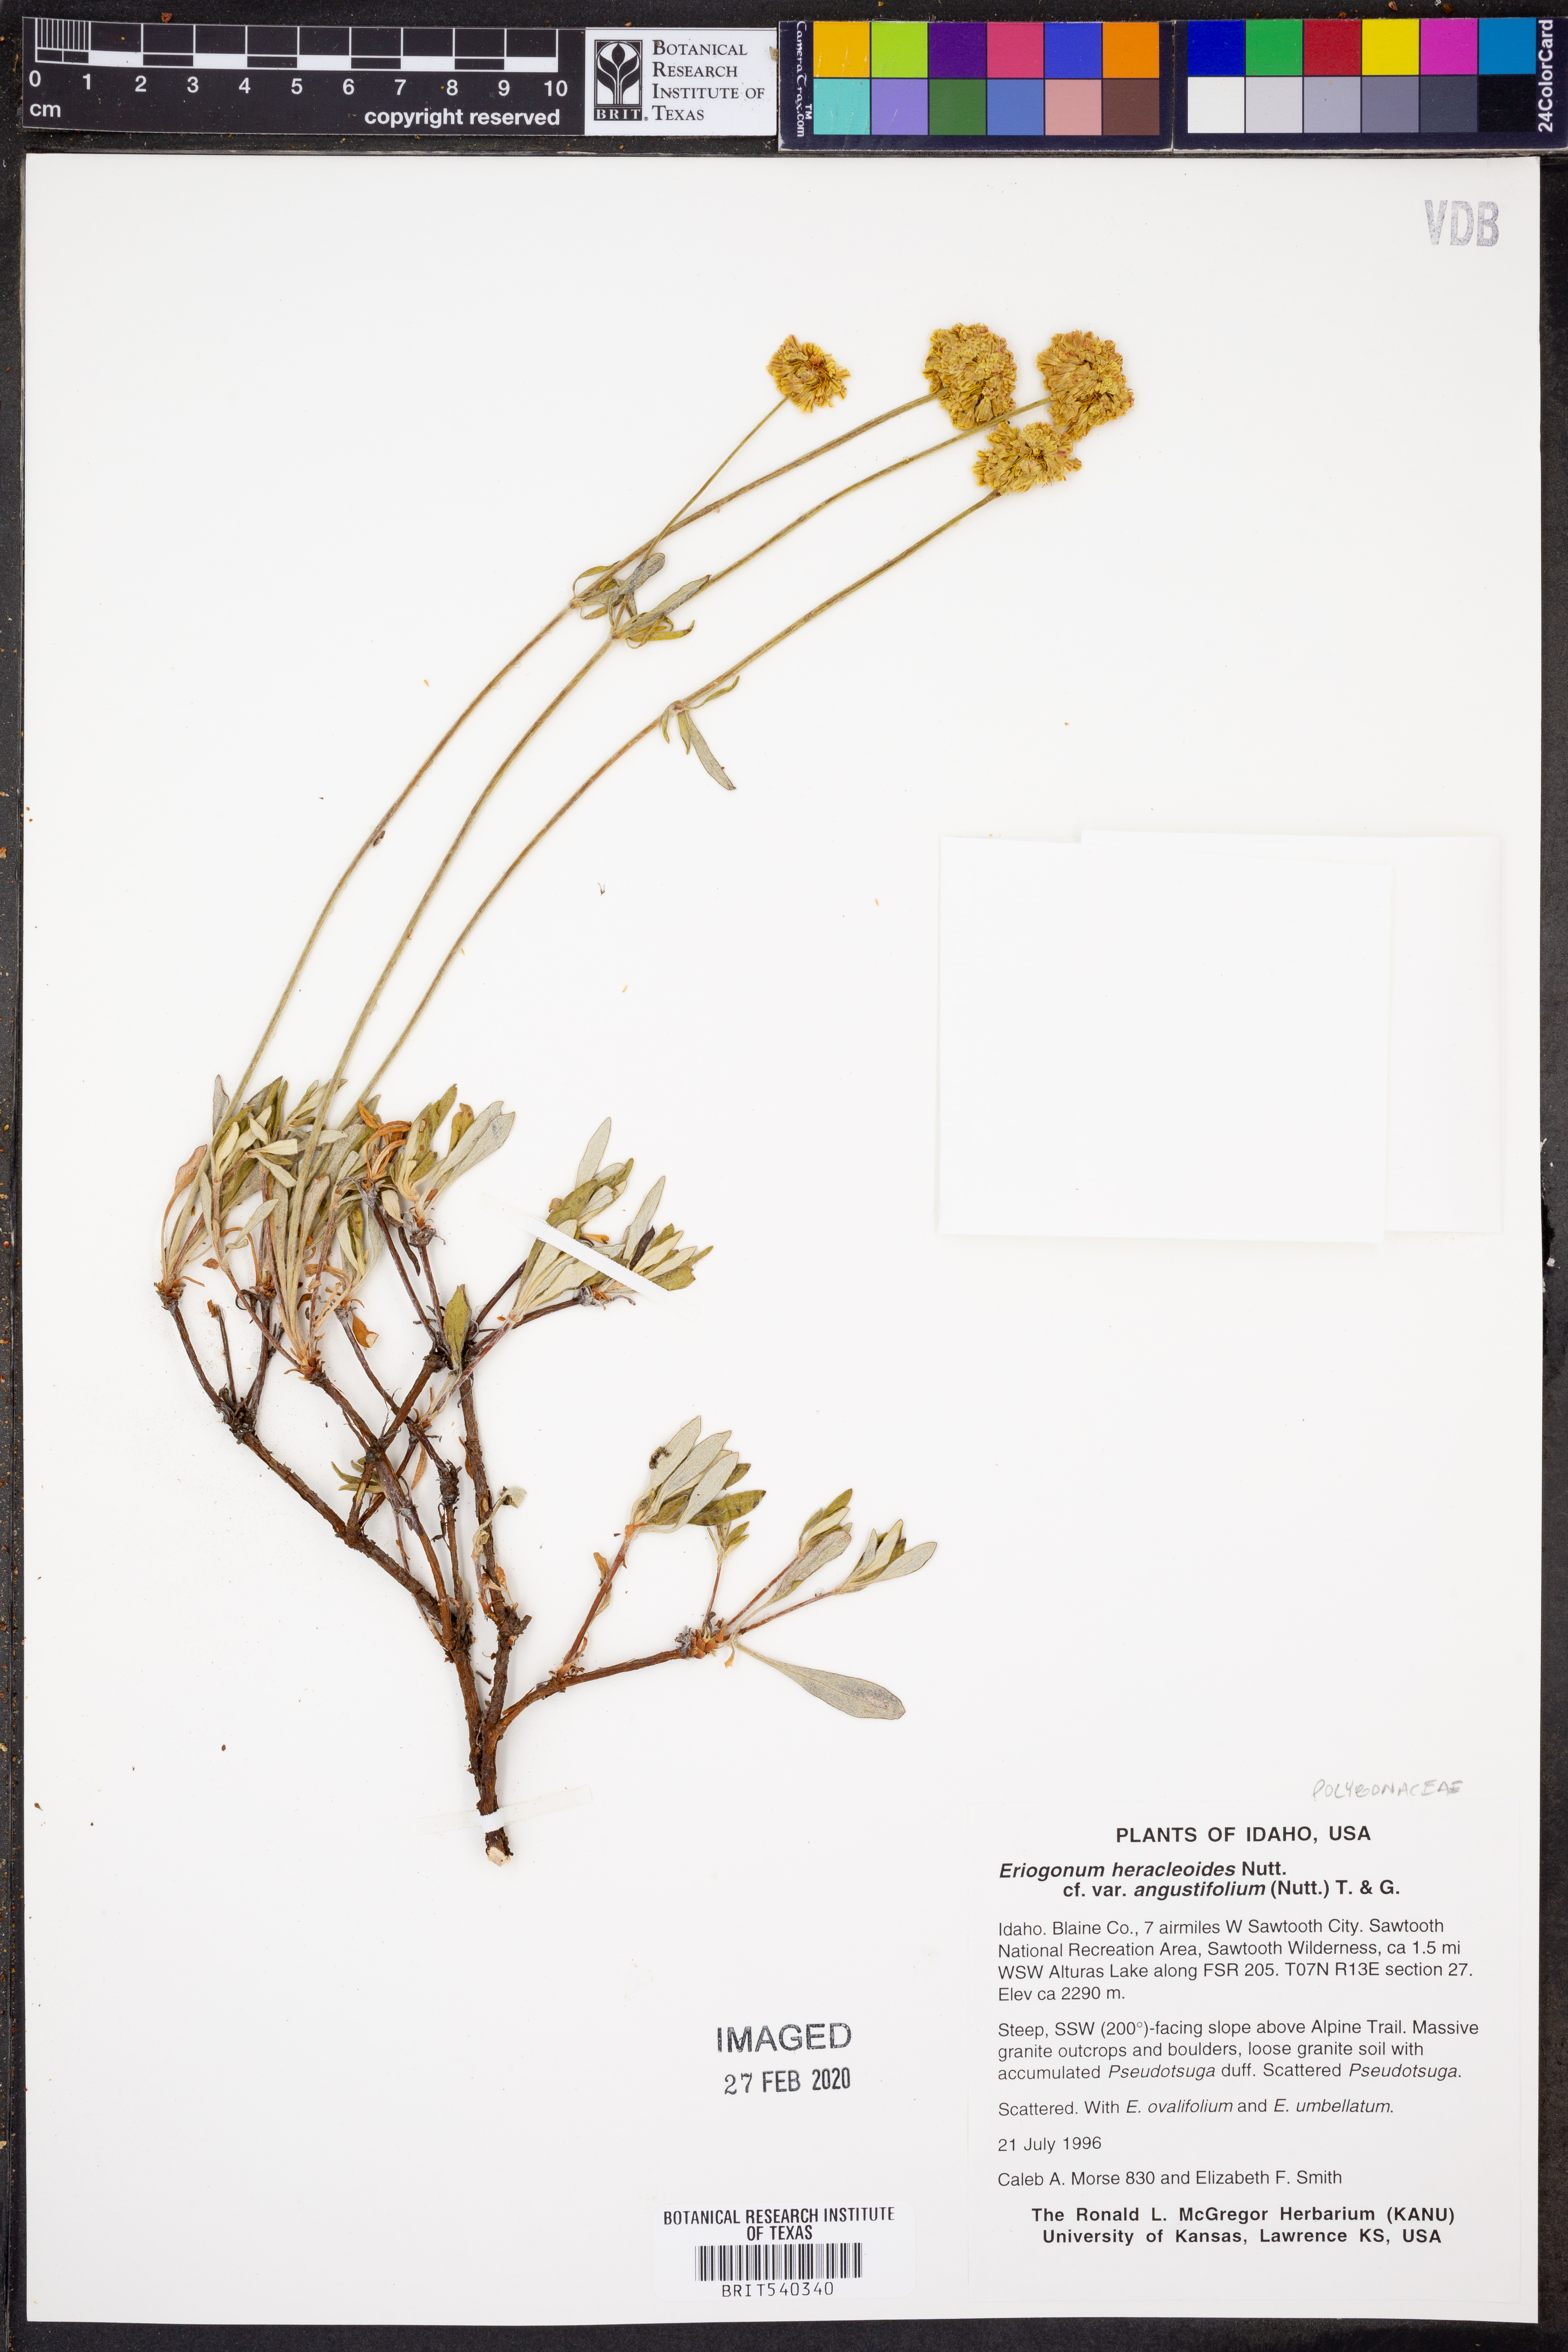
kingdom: Plantae
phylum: Tracheophyta
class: Magnoliopsida
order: Caryophyllales
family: Polygonaceae
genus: Eriogonum
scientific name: Eriogonum heracleoides
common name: Wyeth's buckwheat
